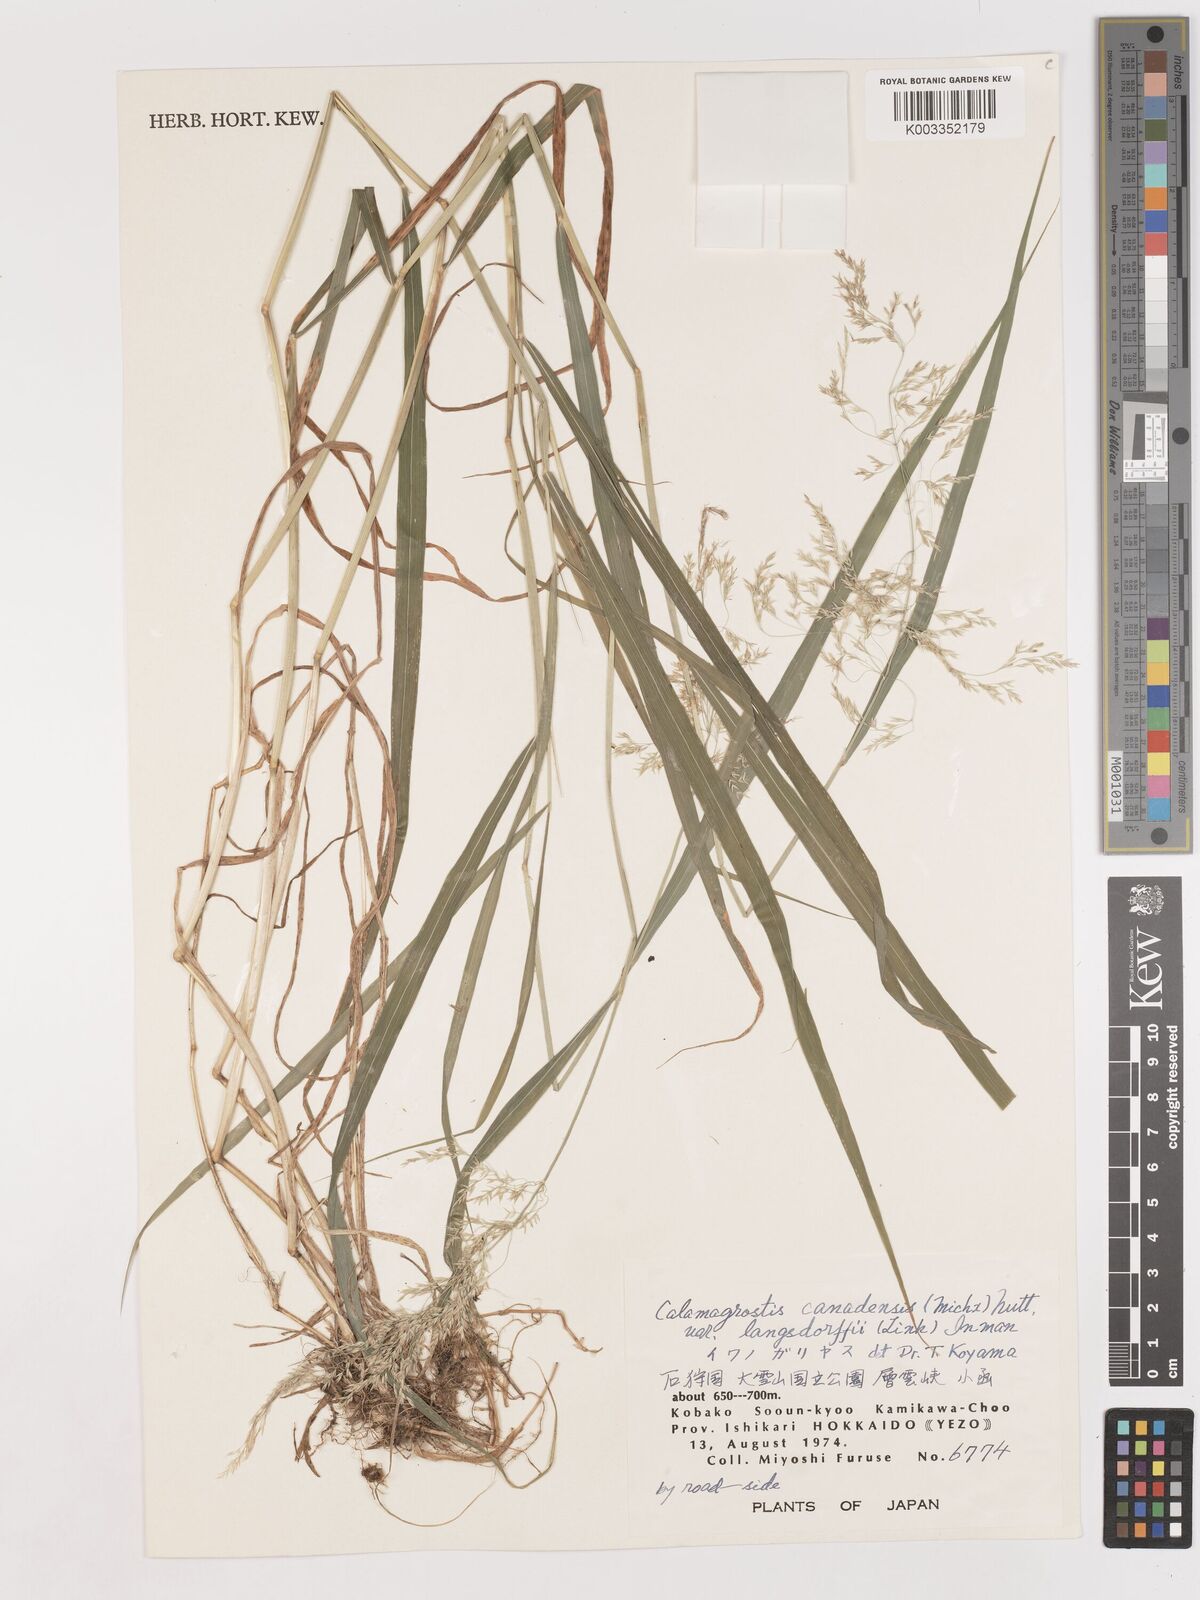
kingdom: Plantae
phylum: Tracheophyta
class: Liliopsida
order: Poales
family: Poaceae
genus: Calamagrostis
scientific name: Calamagrostis purpurea
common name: Scandinavian small-reed
